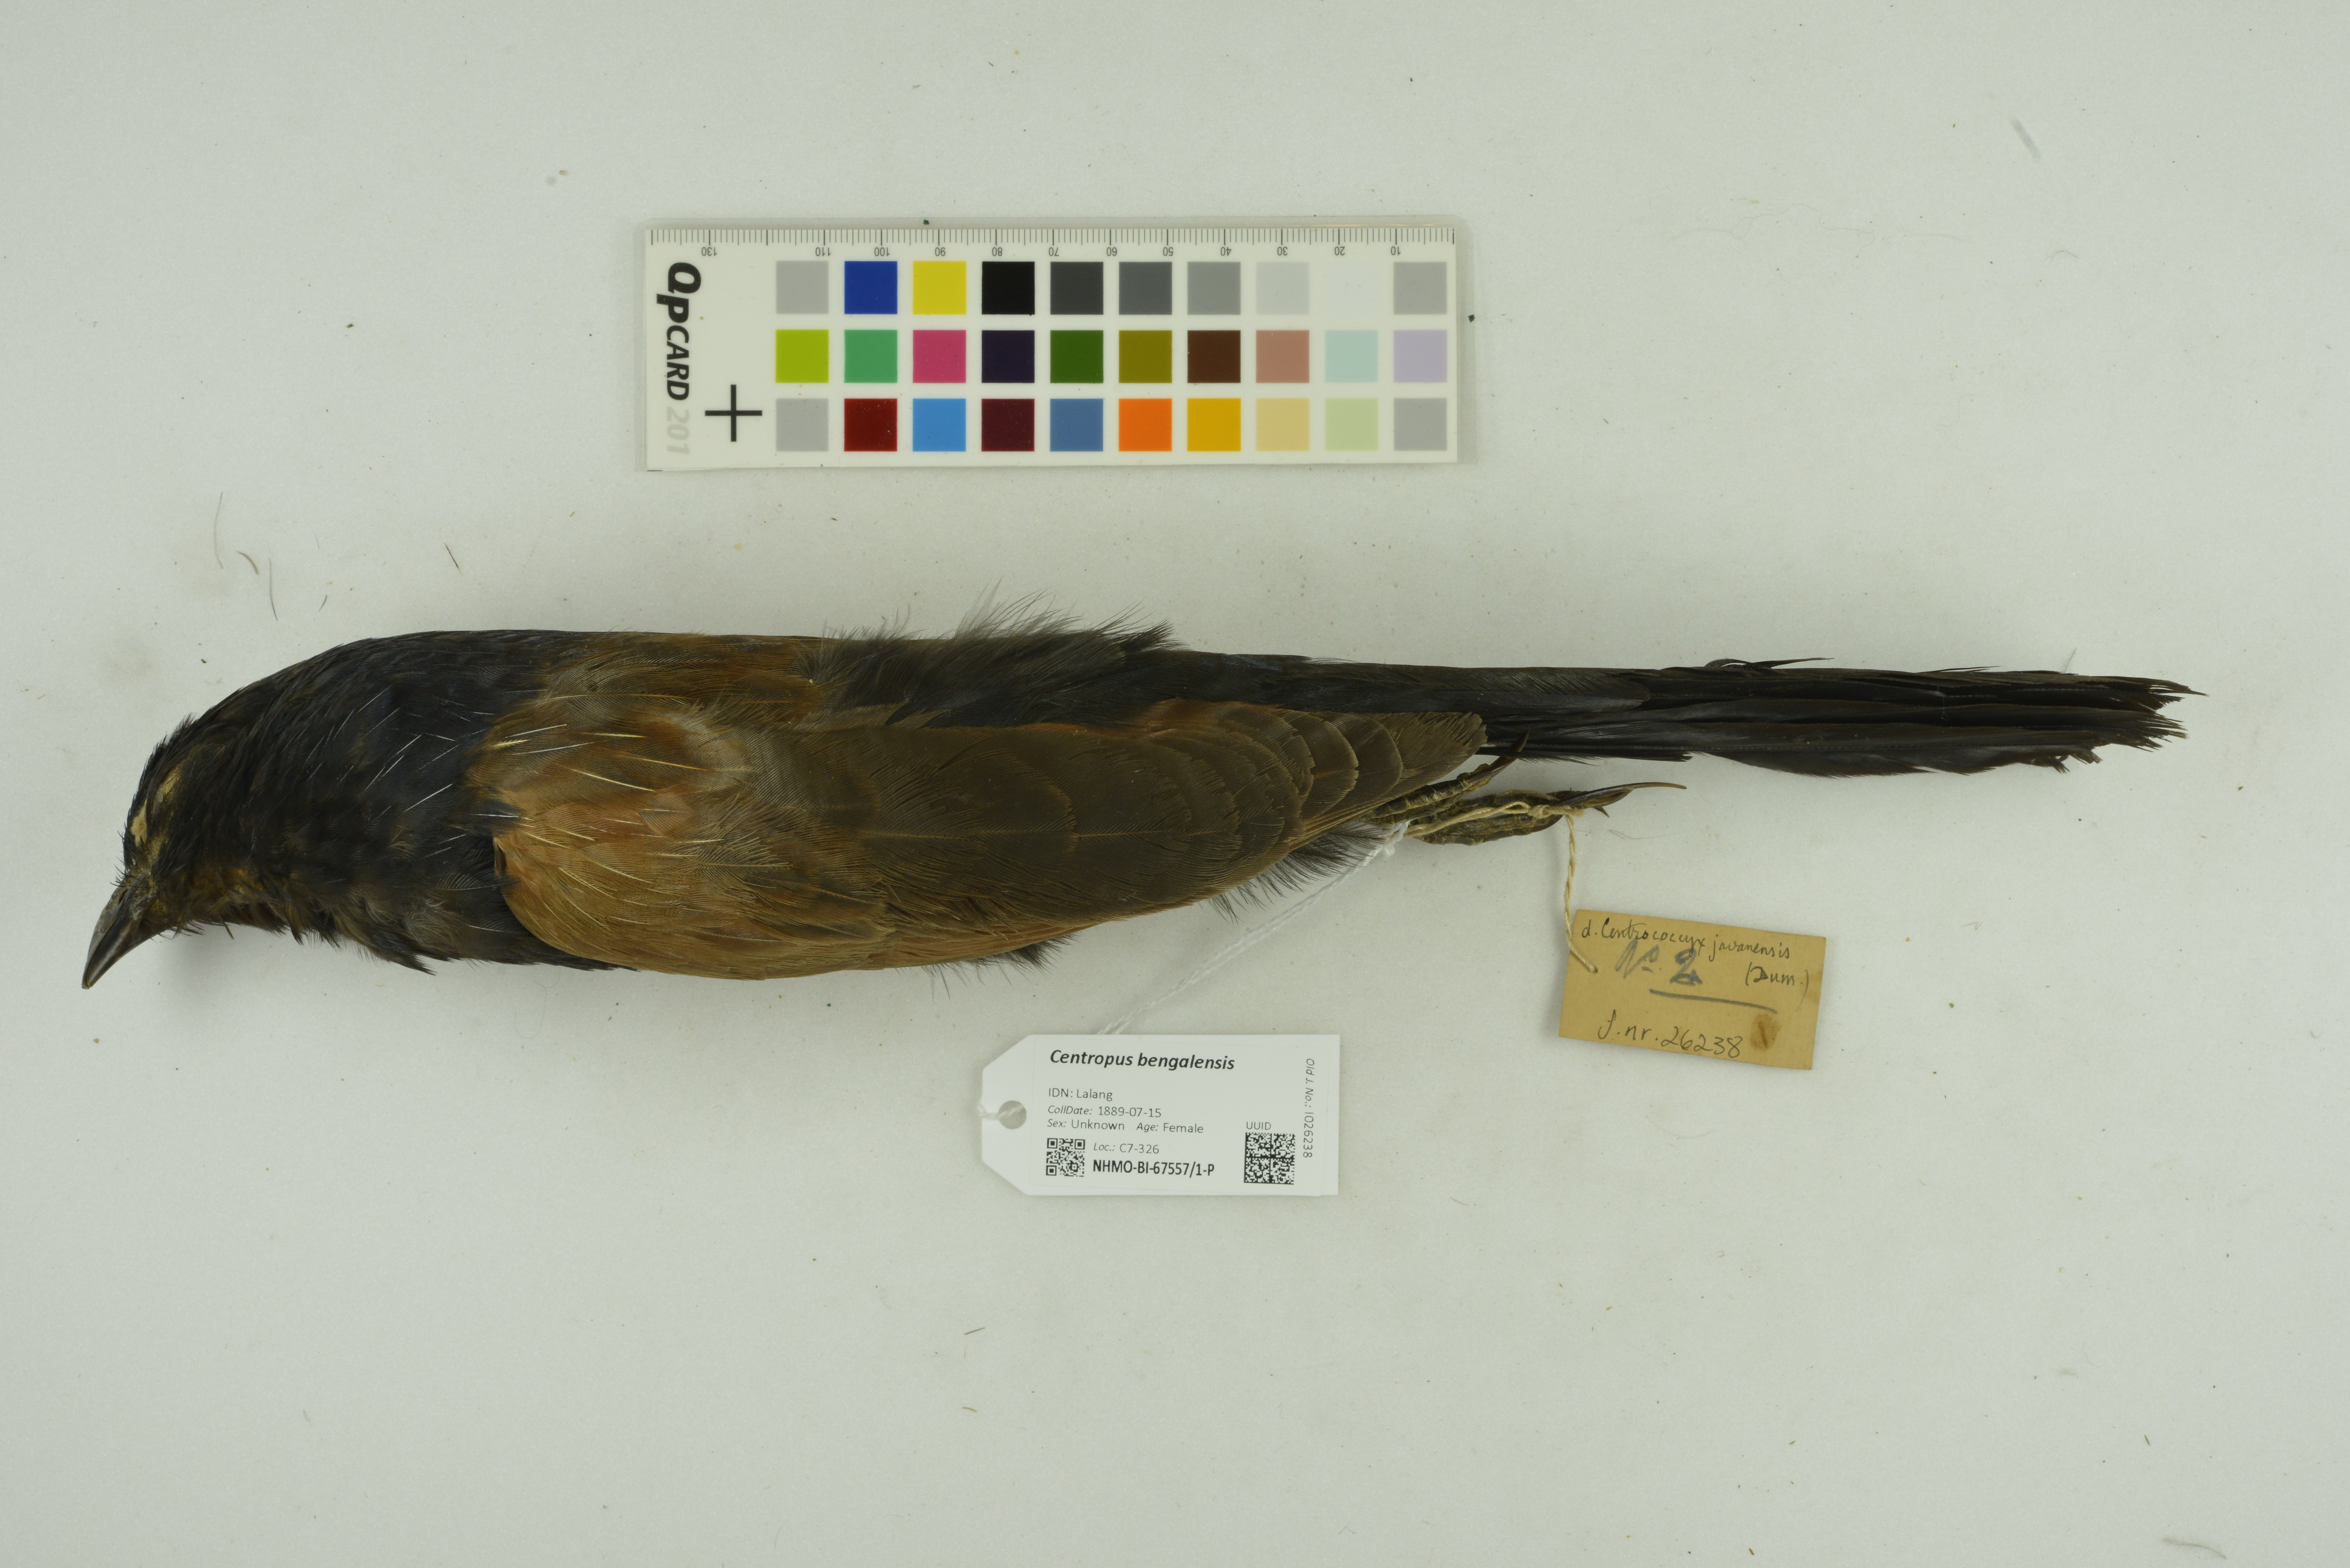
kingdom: Animalia
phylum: Chordata
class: Aves
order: Cuculiformes
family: Cuculidae
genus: Centropus
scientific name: Centropus bengalensis
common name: Lesser coucal
